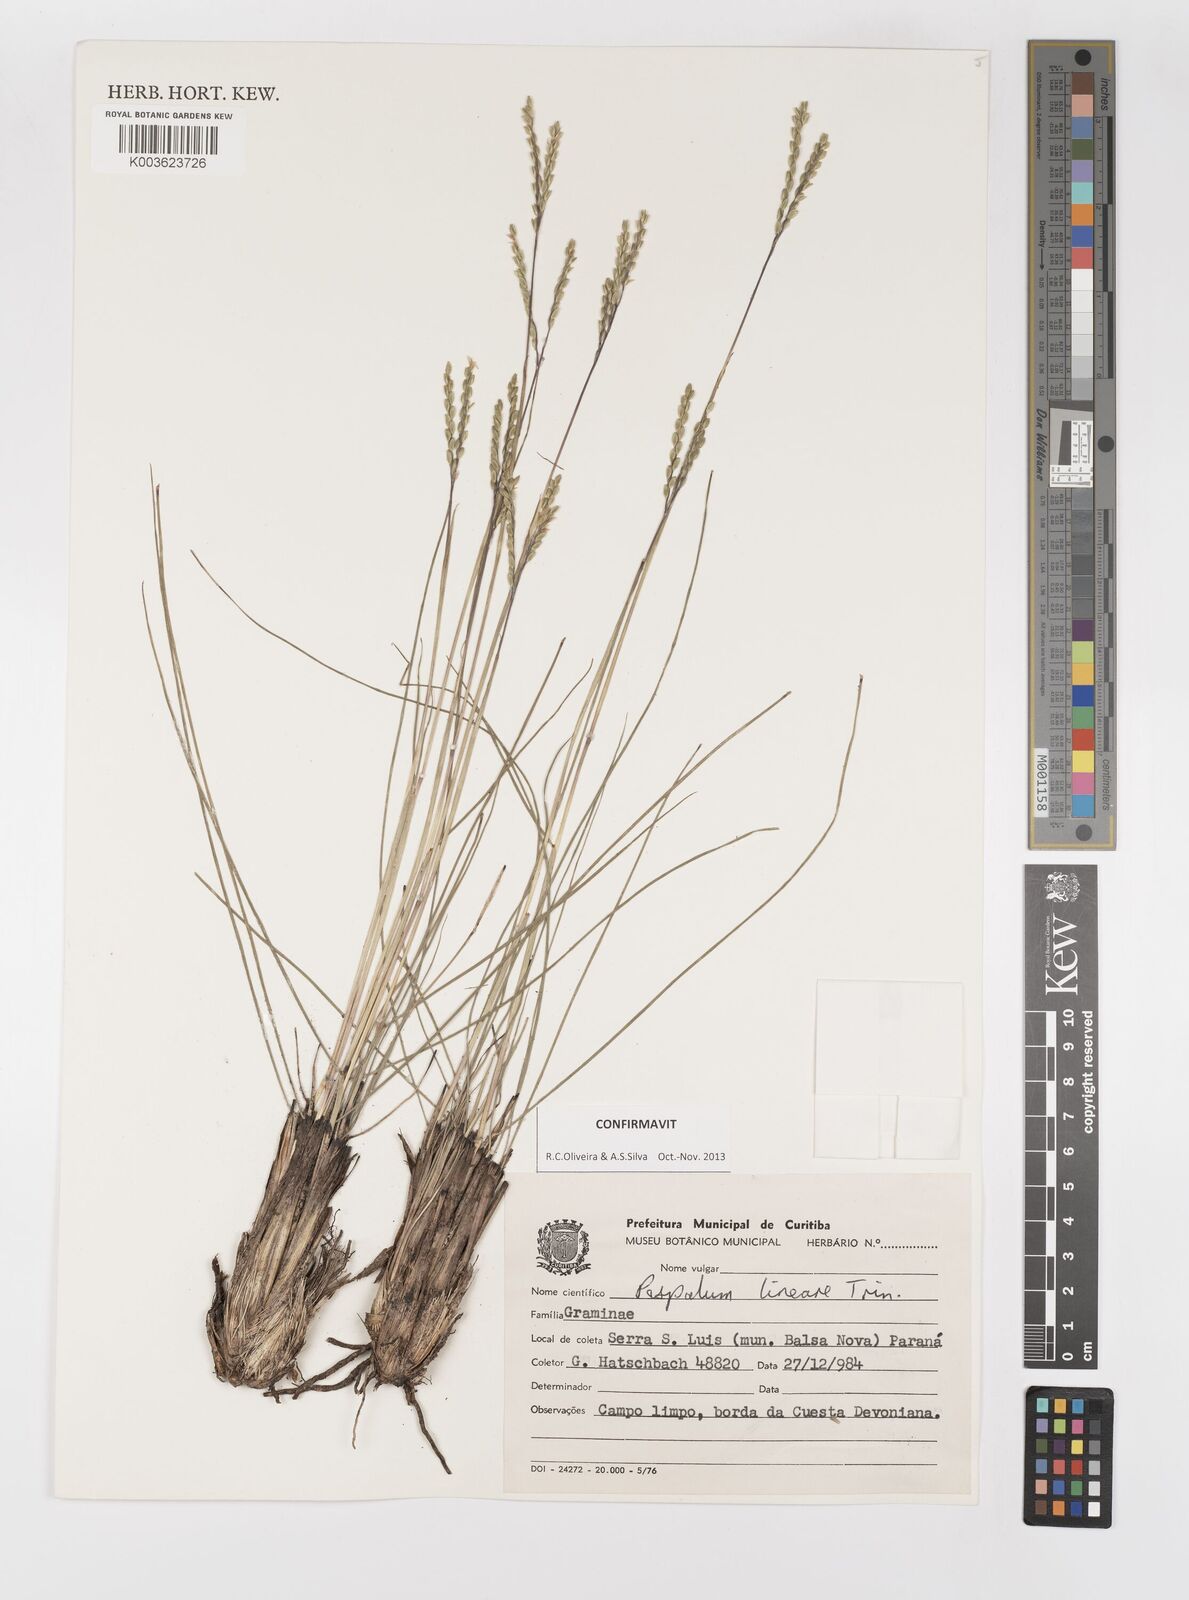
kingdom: Plantae
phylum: Tracheophyta
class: Liliopsida
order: Poales
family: Poaceae
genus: Paspalum
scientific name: Paspalum caespitosum
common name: Blue crowngrass
